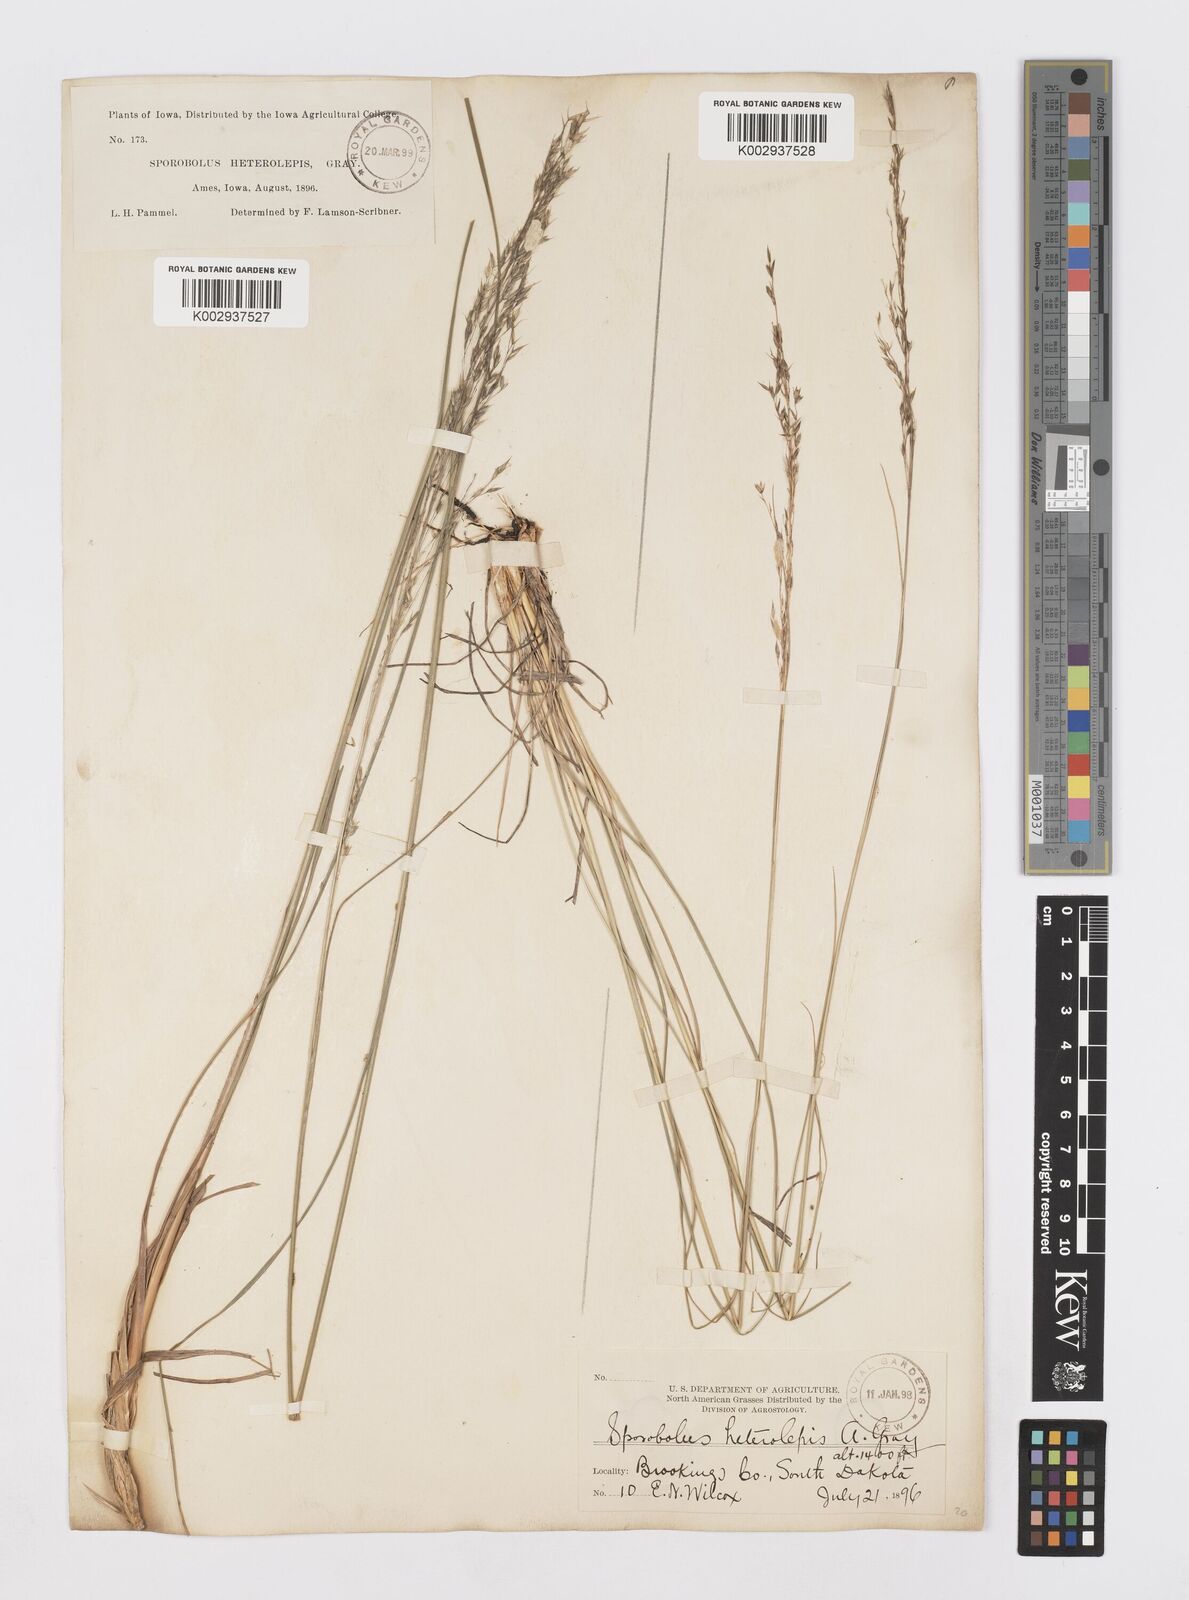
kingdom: Plantae
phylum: Tracheophyta
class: Liliopsida
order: Poales
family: Poaceae
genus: Sporobolus
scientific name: Sporobolus heterolepis
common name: Prairie dropseed
